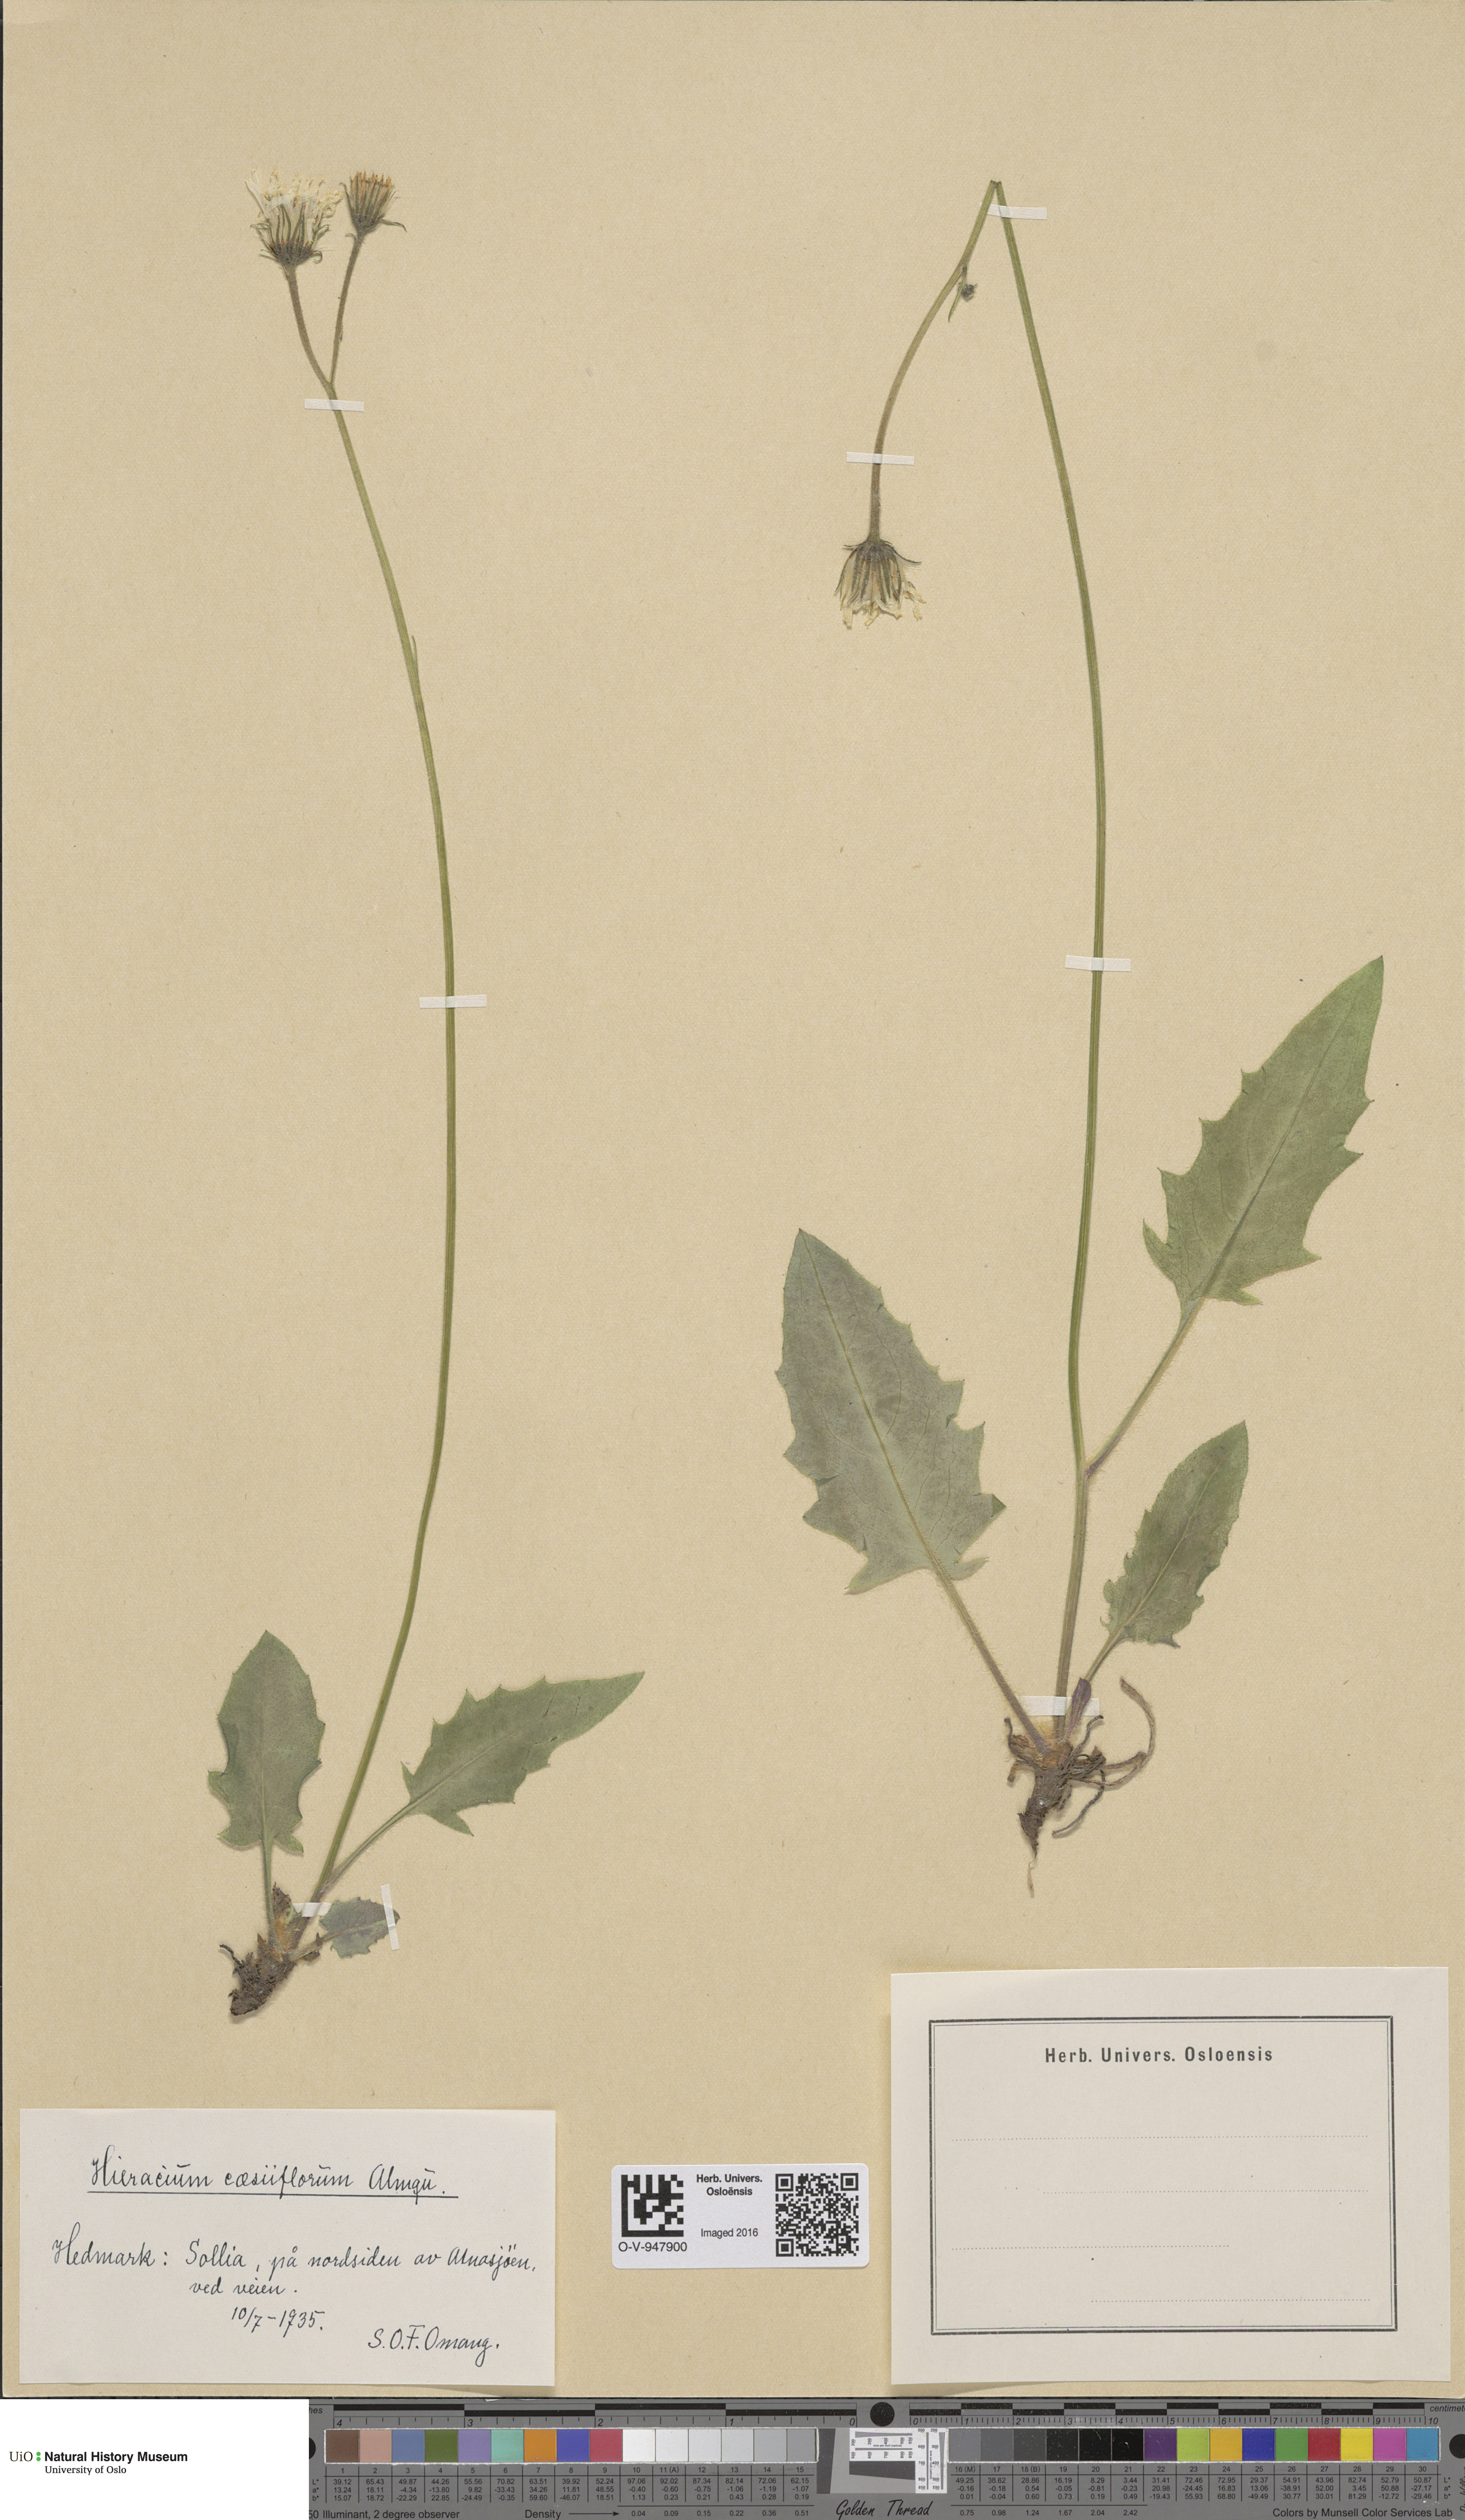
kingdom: Plantae
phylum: Tracheophyta
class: Magnoliopsida
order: Asterales
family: Asteraceae
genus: Hieracium
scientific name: Hieracium bifidum
